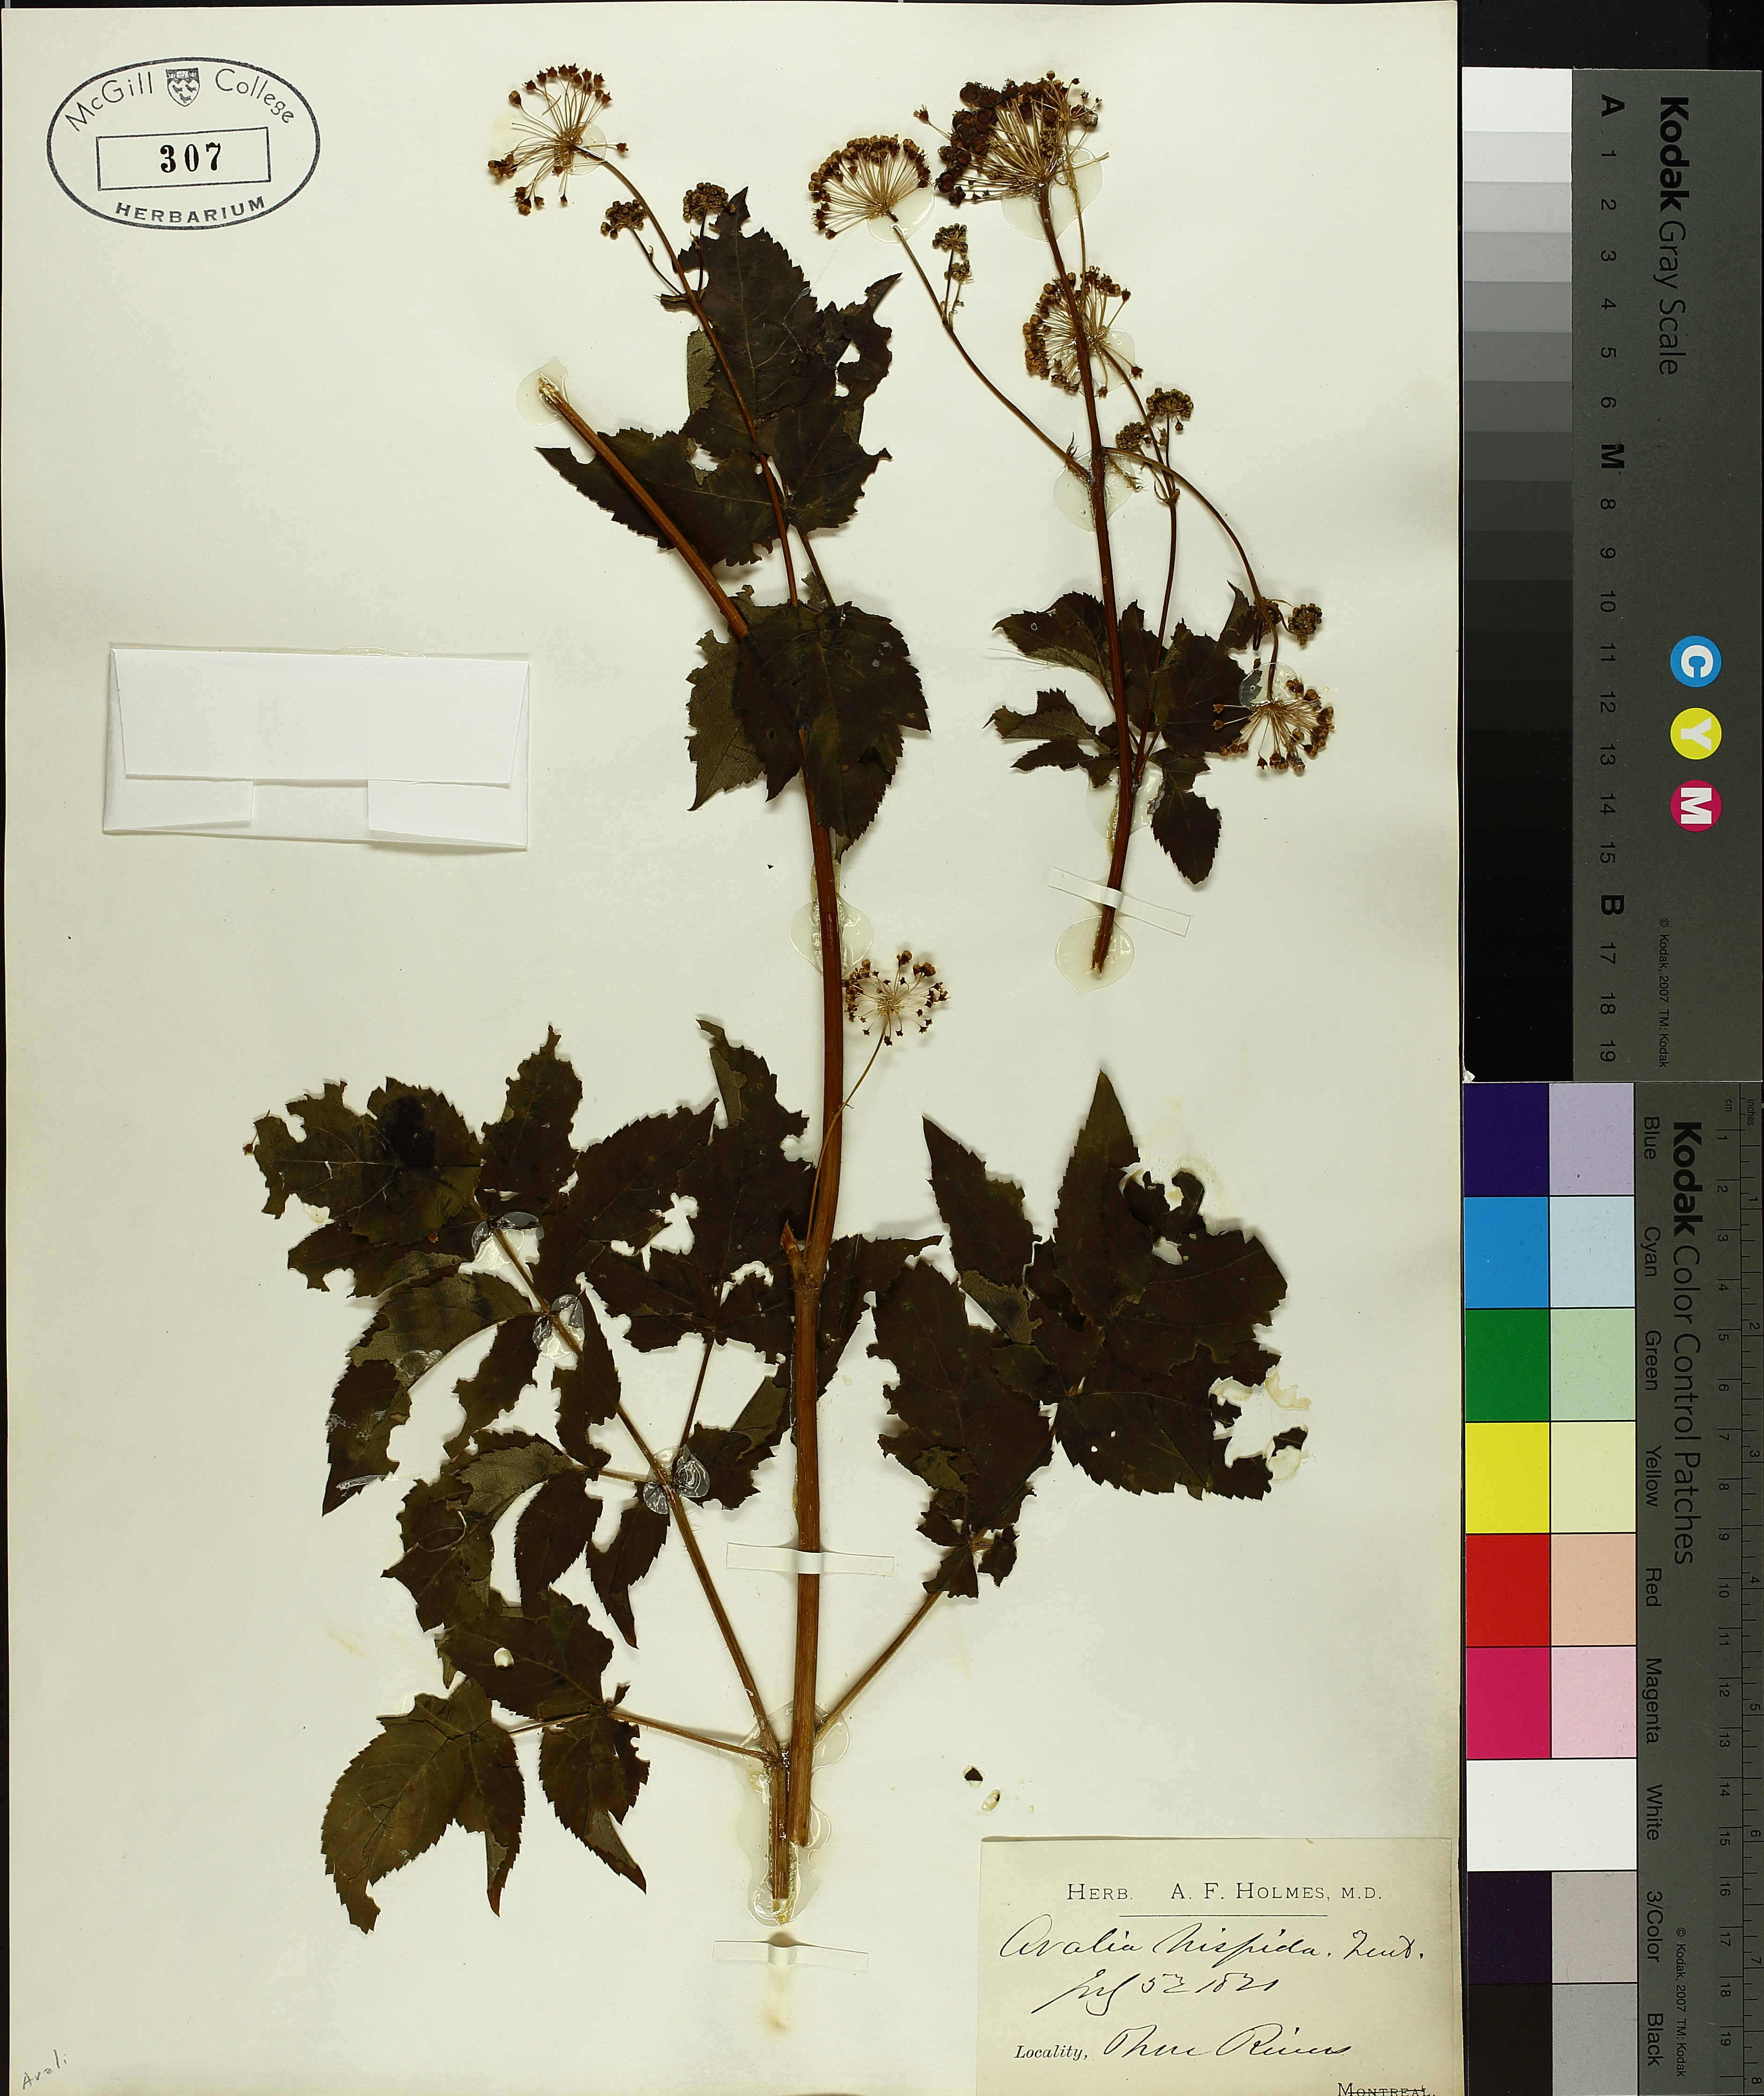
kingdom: Plantae
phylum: Tracheophyta
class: Magnoliopsida
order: Apiales
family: Araliaceae
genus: Aralia
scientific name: Aralia hispida
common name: Bristly sarsaparilla
